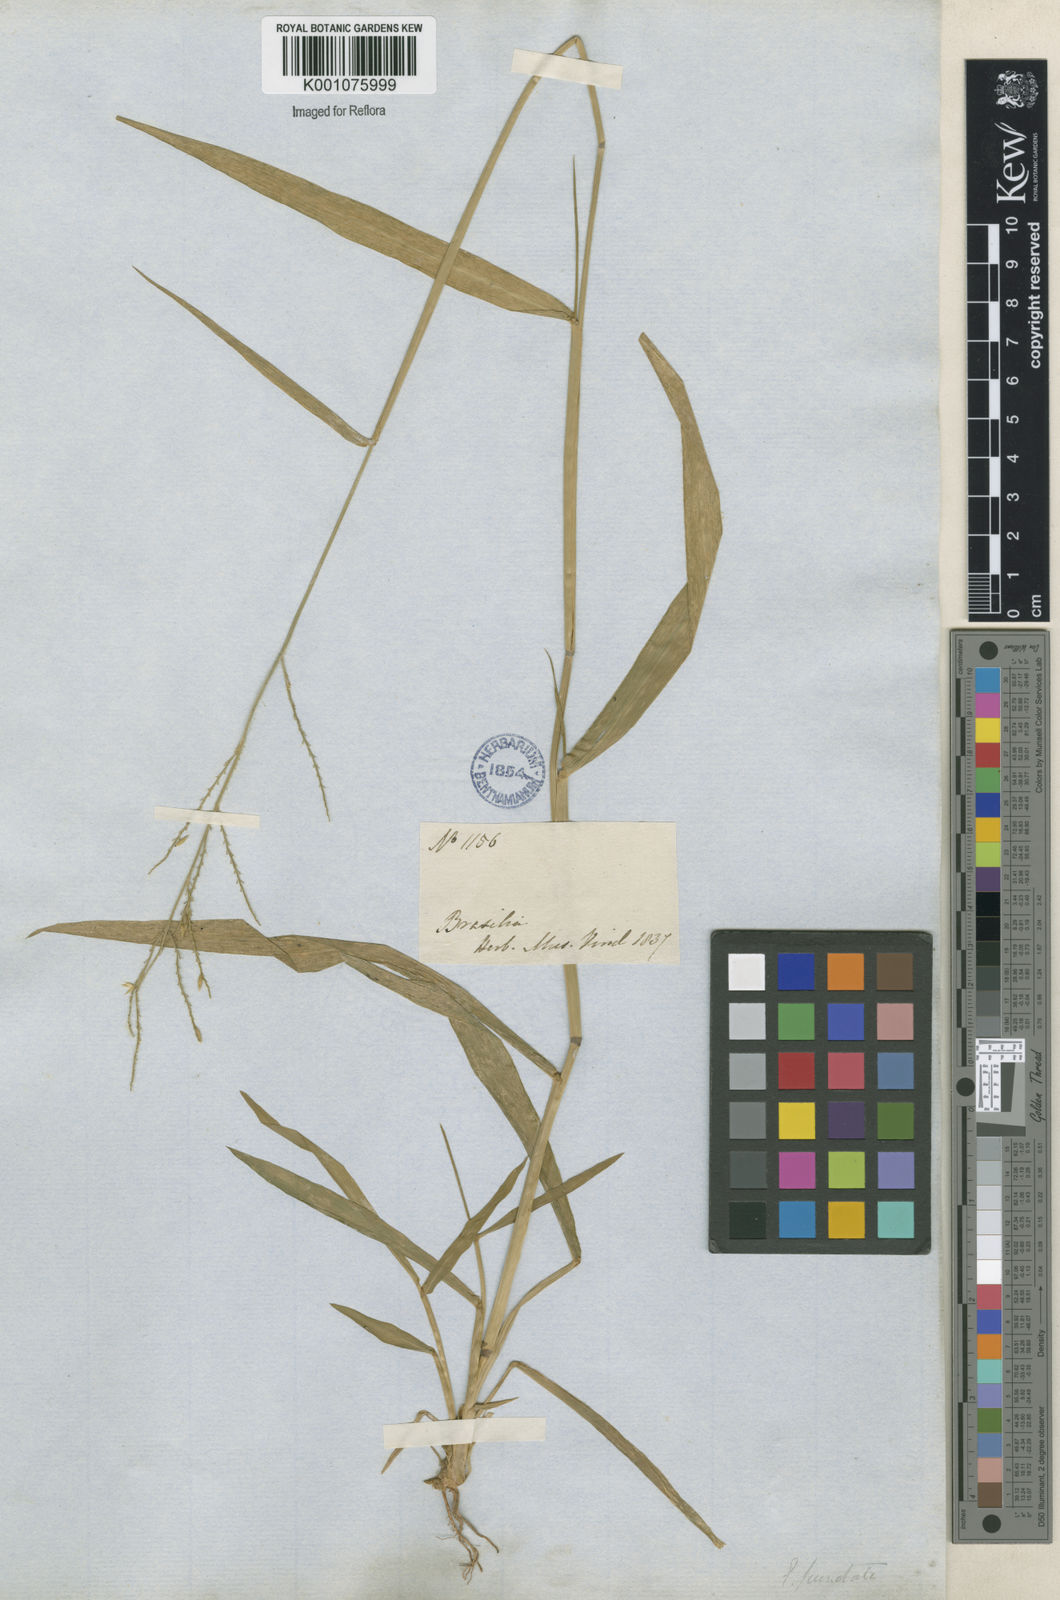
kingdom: Plantae
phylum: Tracheophyta
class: Liliopsida
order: Poales
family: Poaceae
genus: Eriochloa
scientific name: Eriochloa punctata
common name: Louisiana cupgrass
